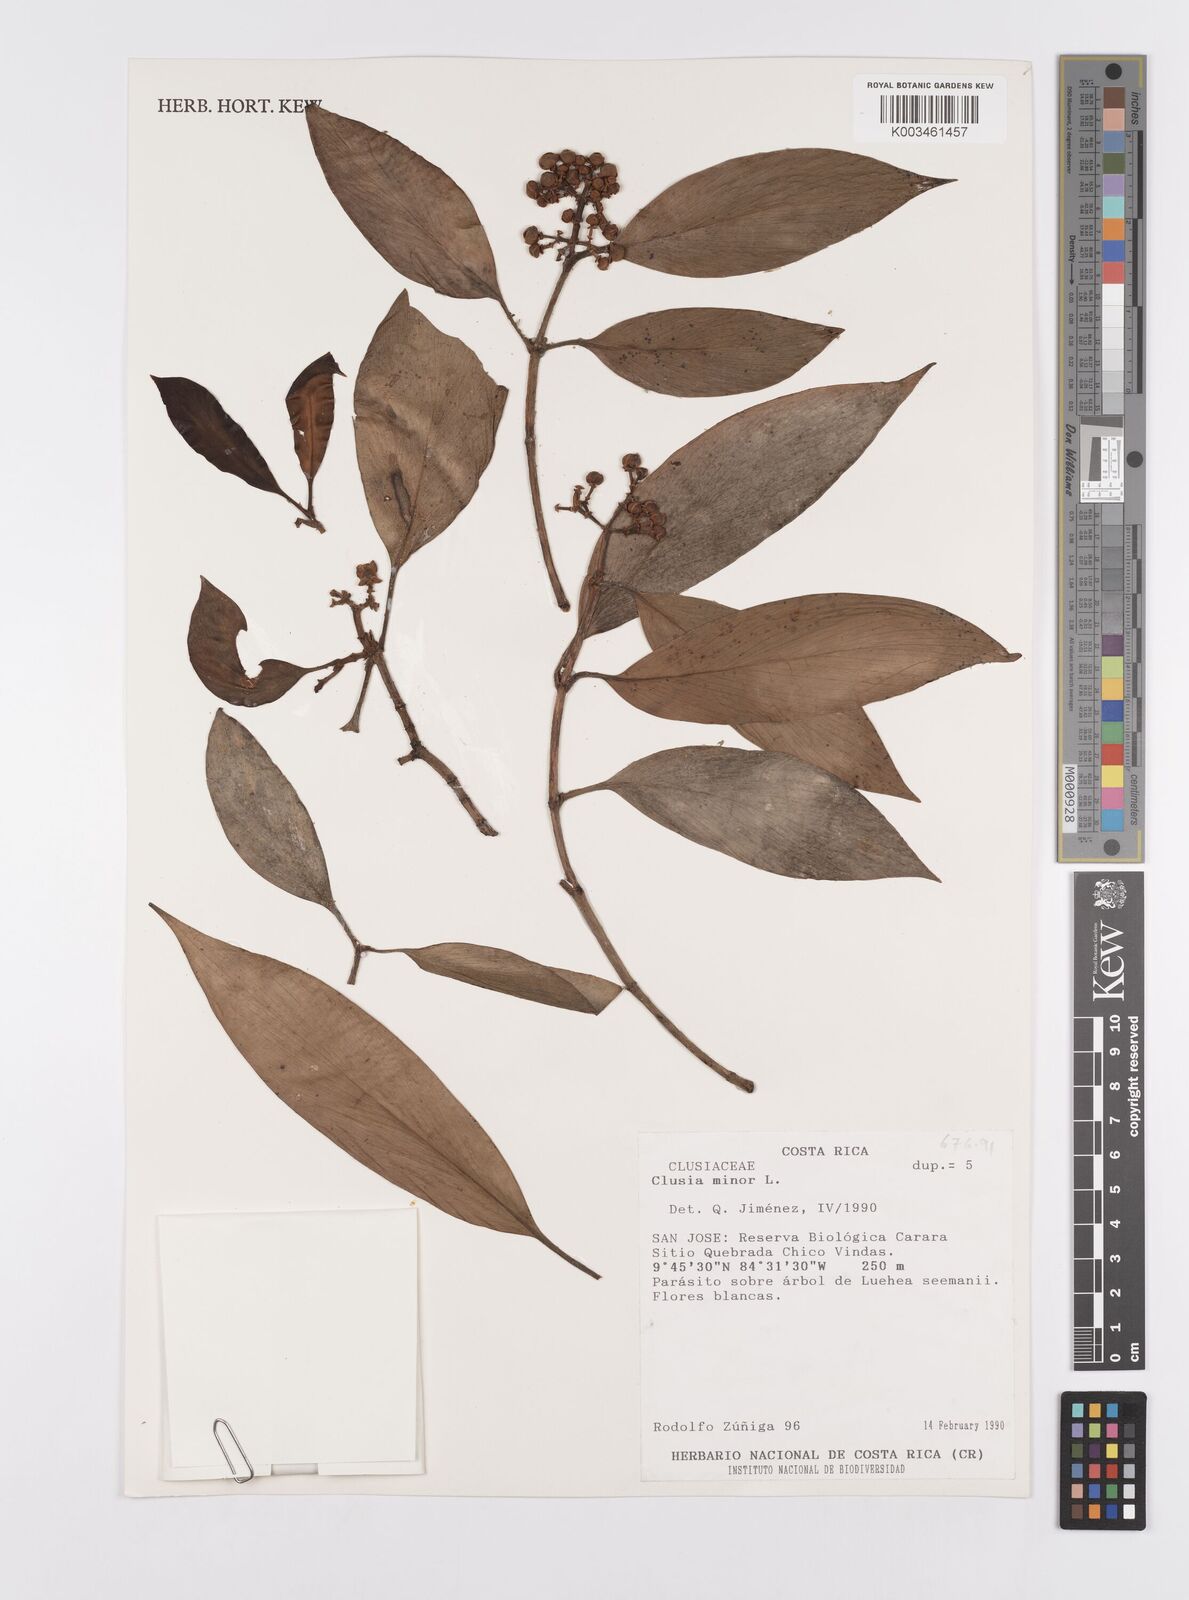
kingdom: Plantae
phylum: Tracheophyta
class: Magnoliopsida
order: Malpighiales
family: Clusiaceae
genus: Clusia
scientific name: Clusia minor
